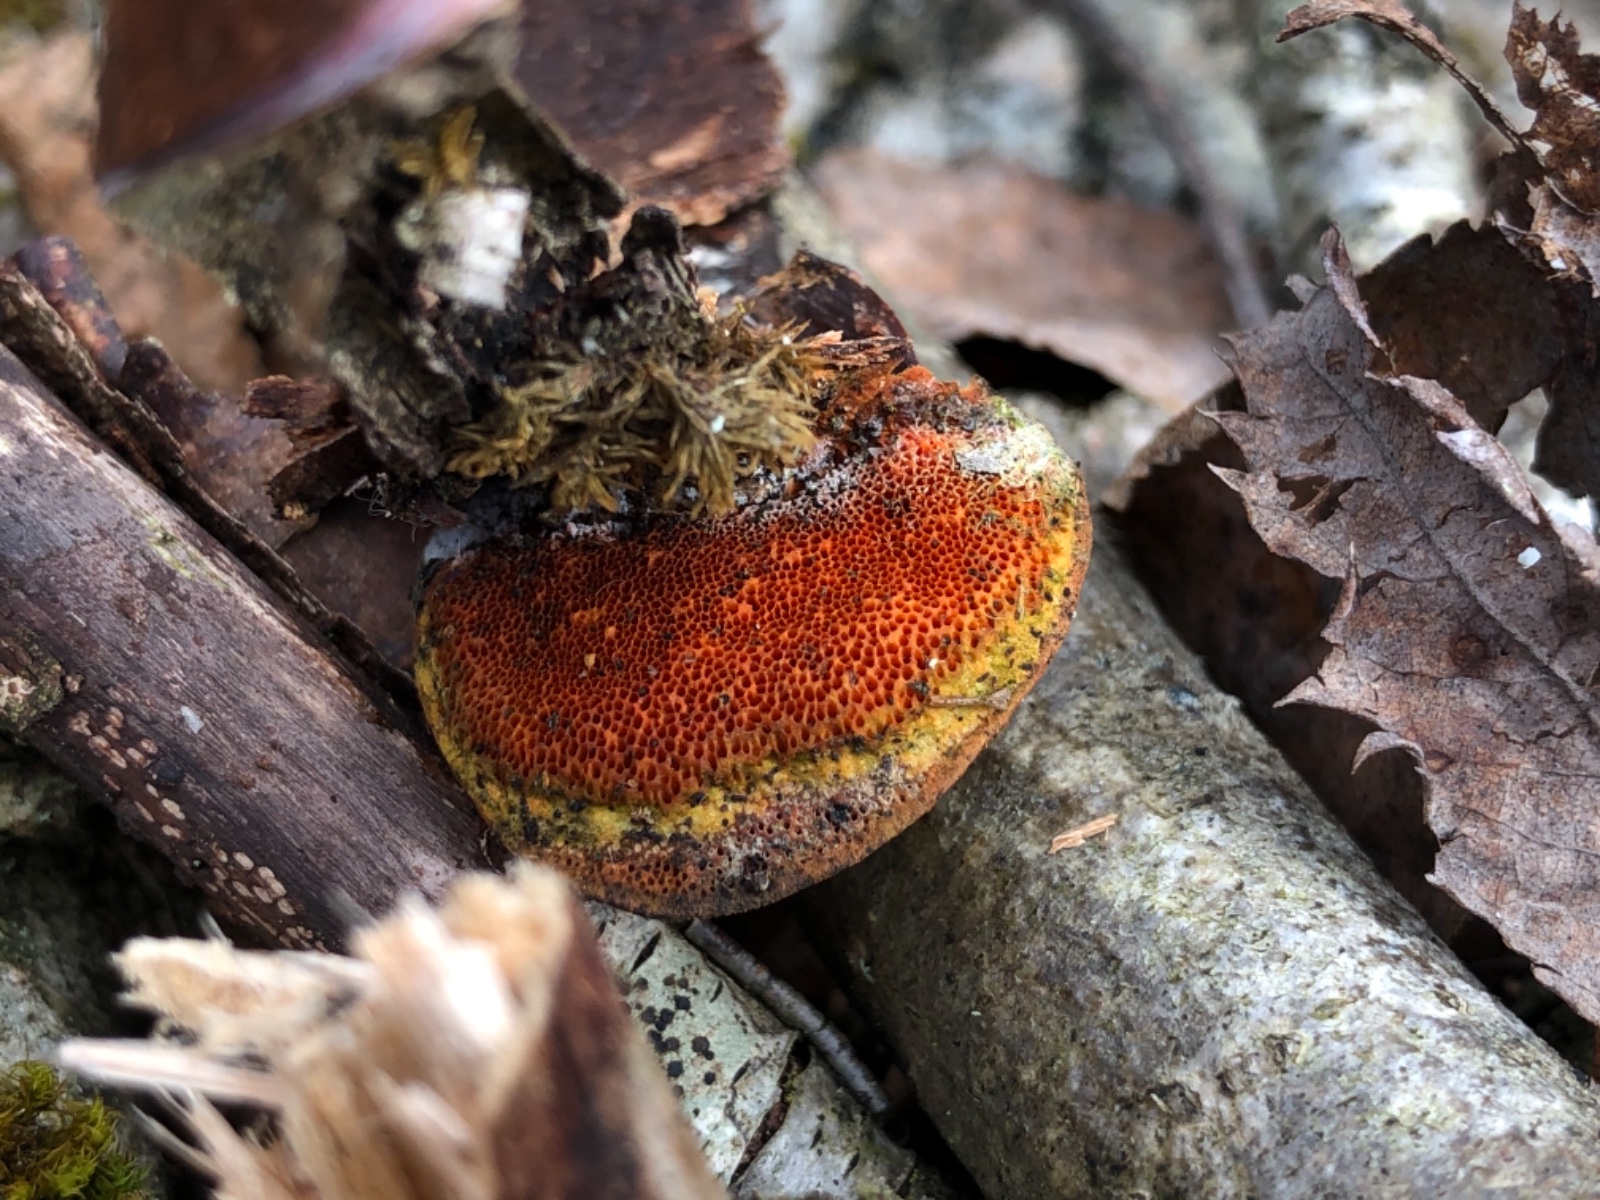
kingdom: Fungi
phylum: Basidiomycota
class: Agaricomycetes
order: Polyporales
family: Polyporaceae
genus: Trametes
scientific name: Trametes cinnabarina
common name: cinnoberporesvamp
